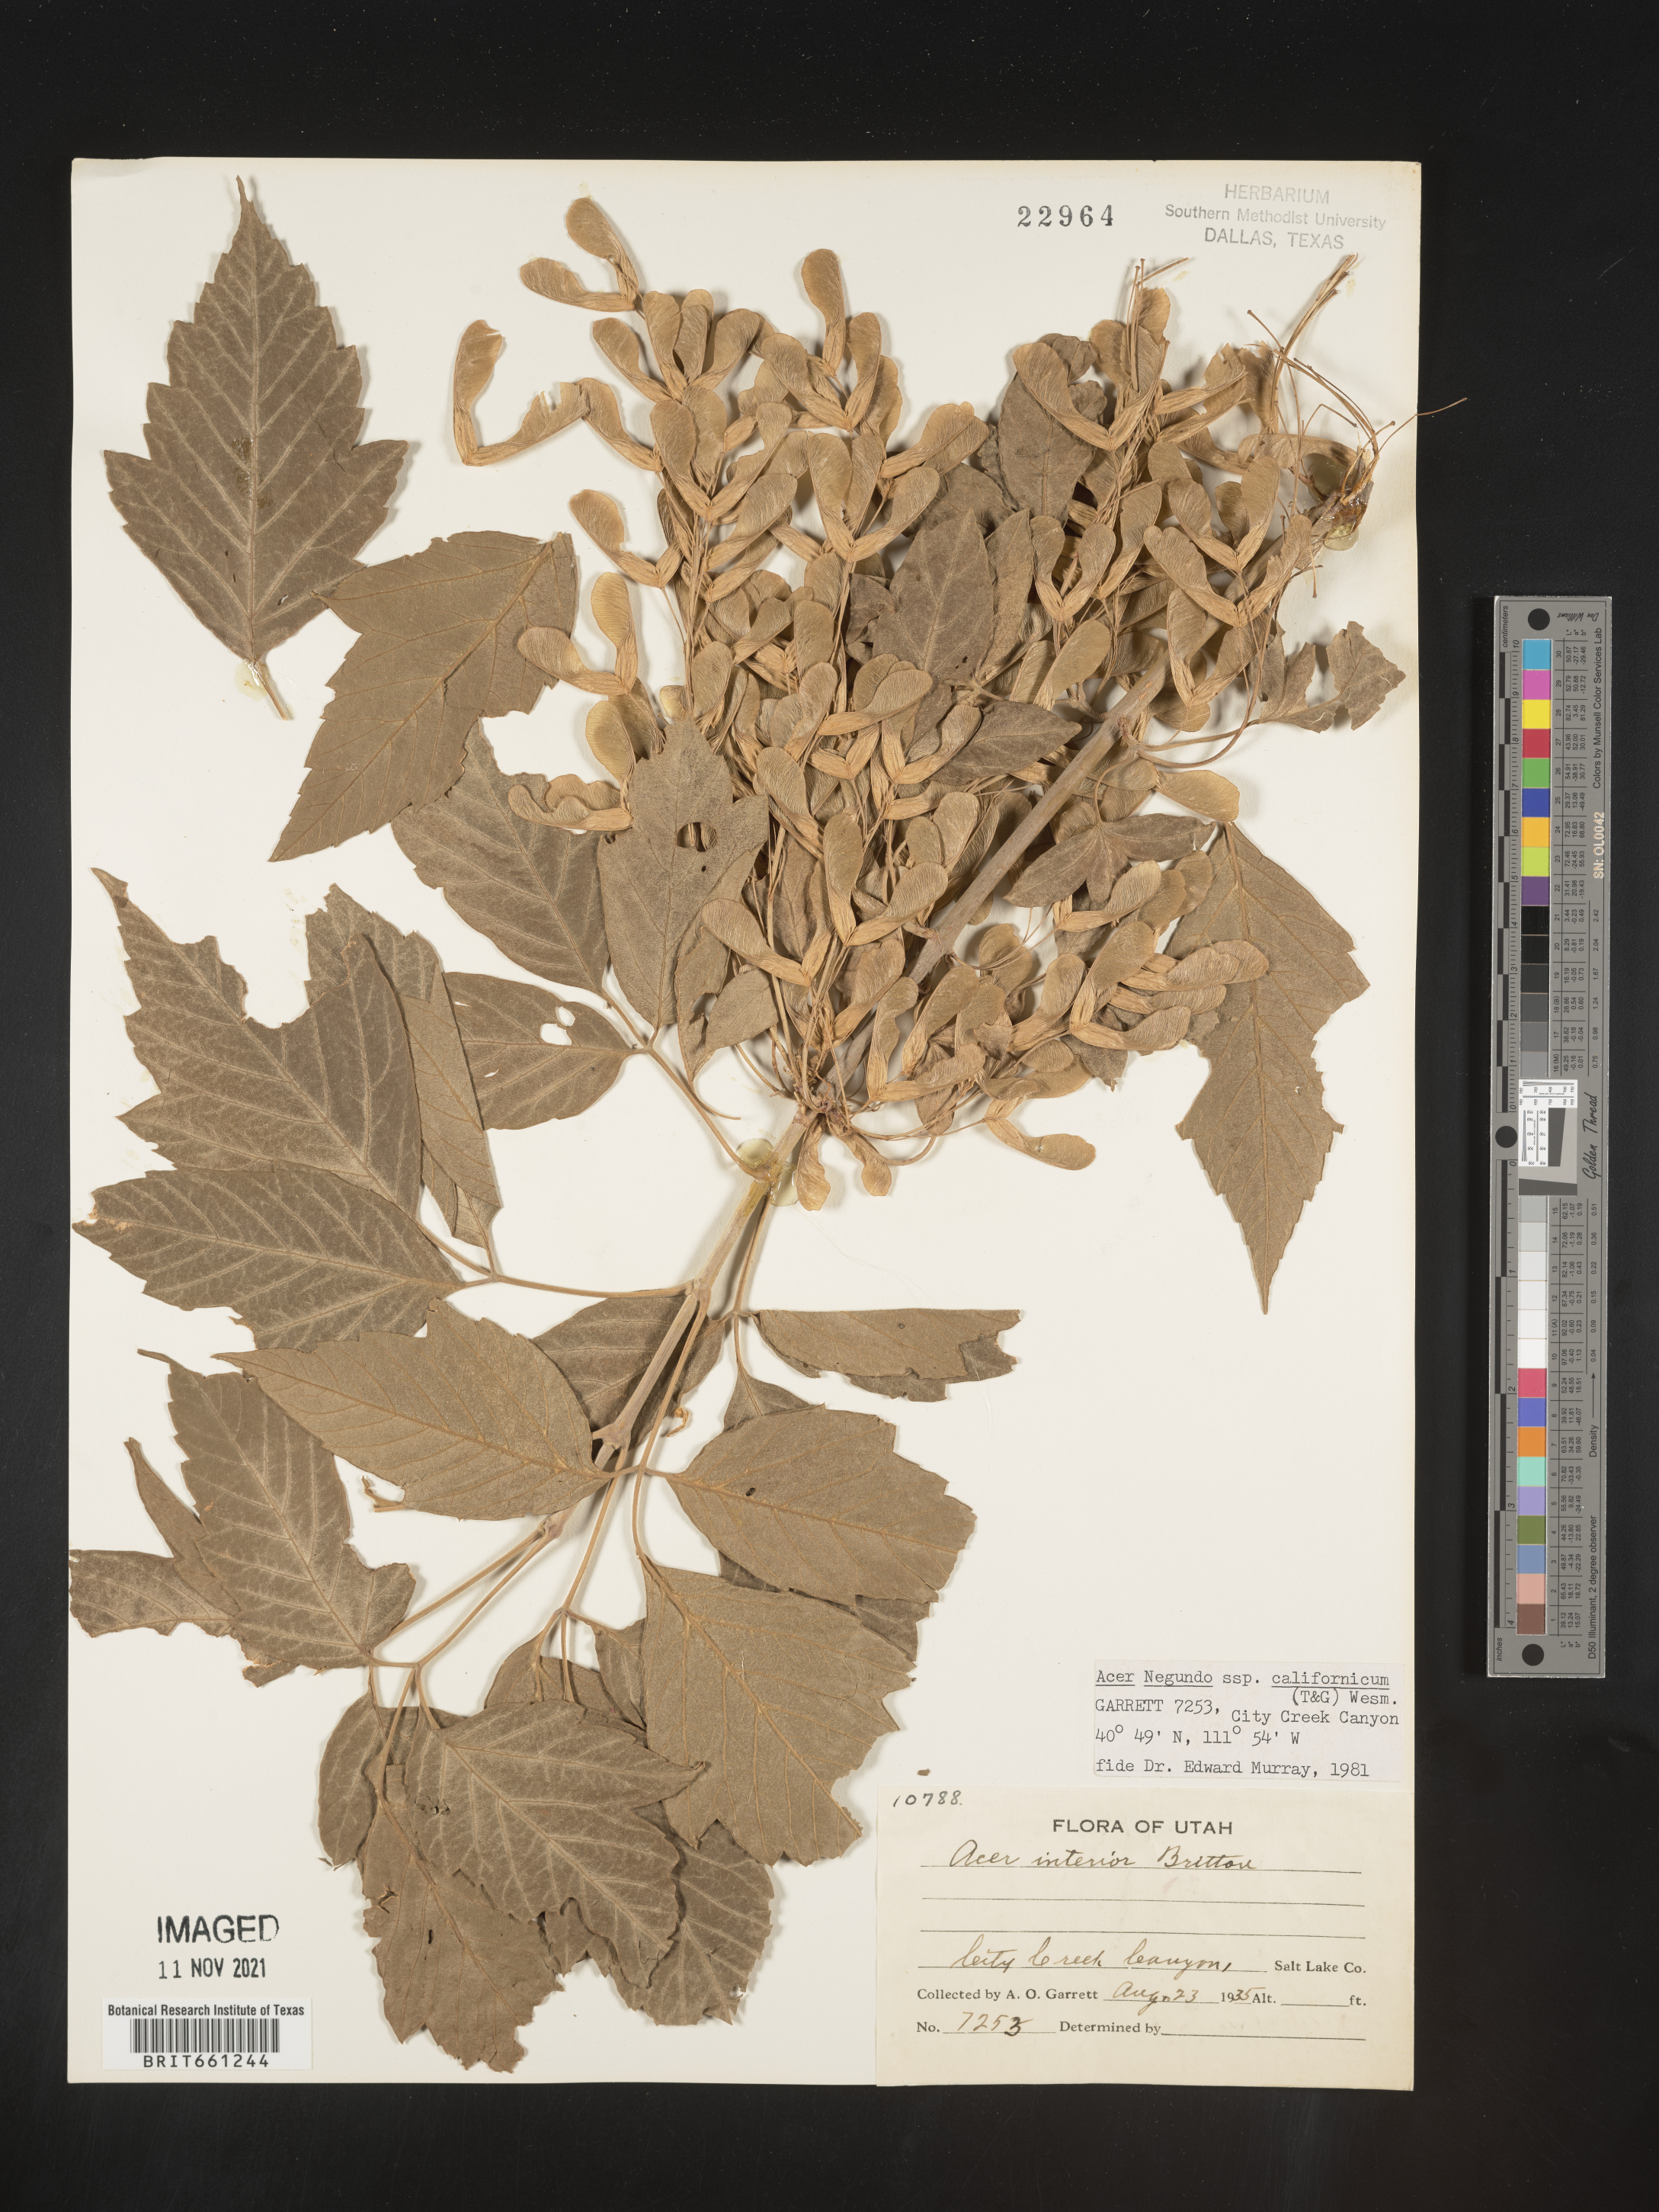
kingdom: Plantae
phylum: Tracheophyta
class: Magnoliopsida
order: Sapindales
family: Sapindaceae
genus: Acer
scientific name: Acer negundo
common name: Ashleaf maple
